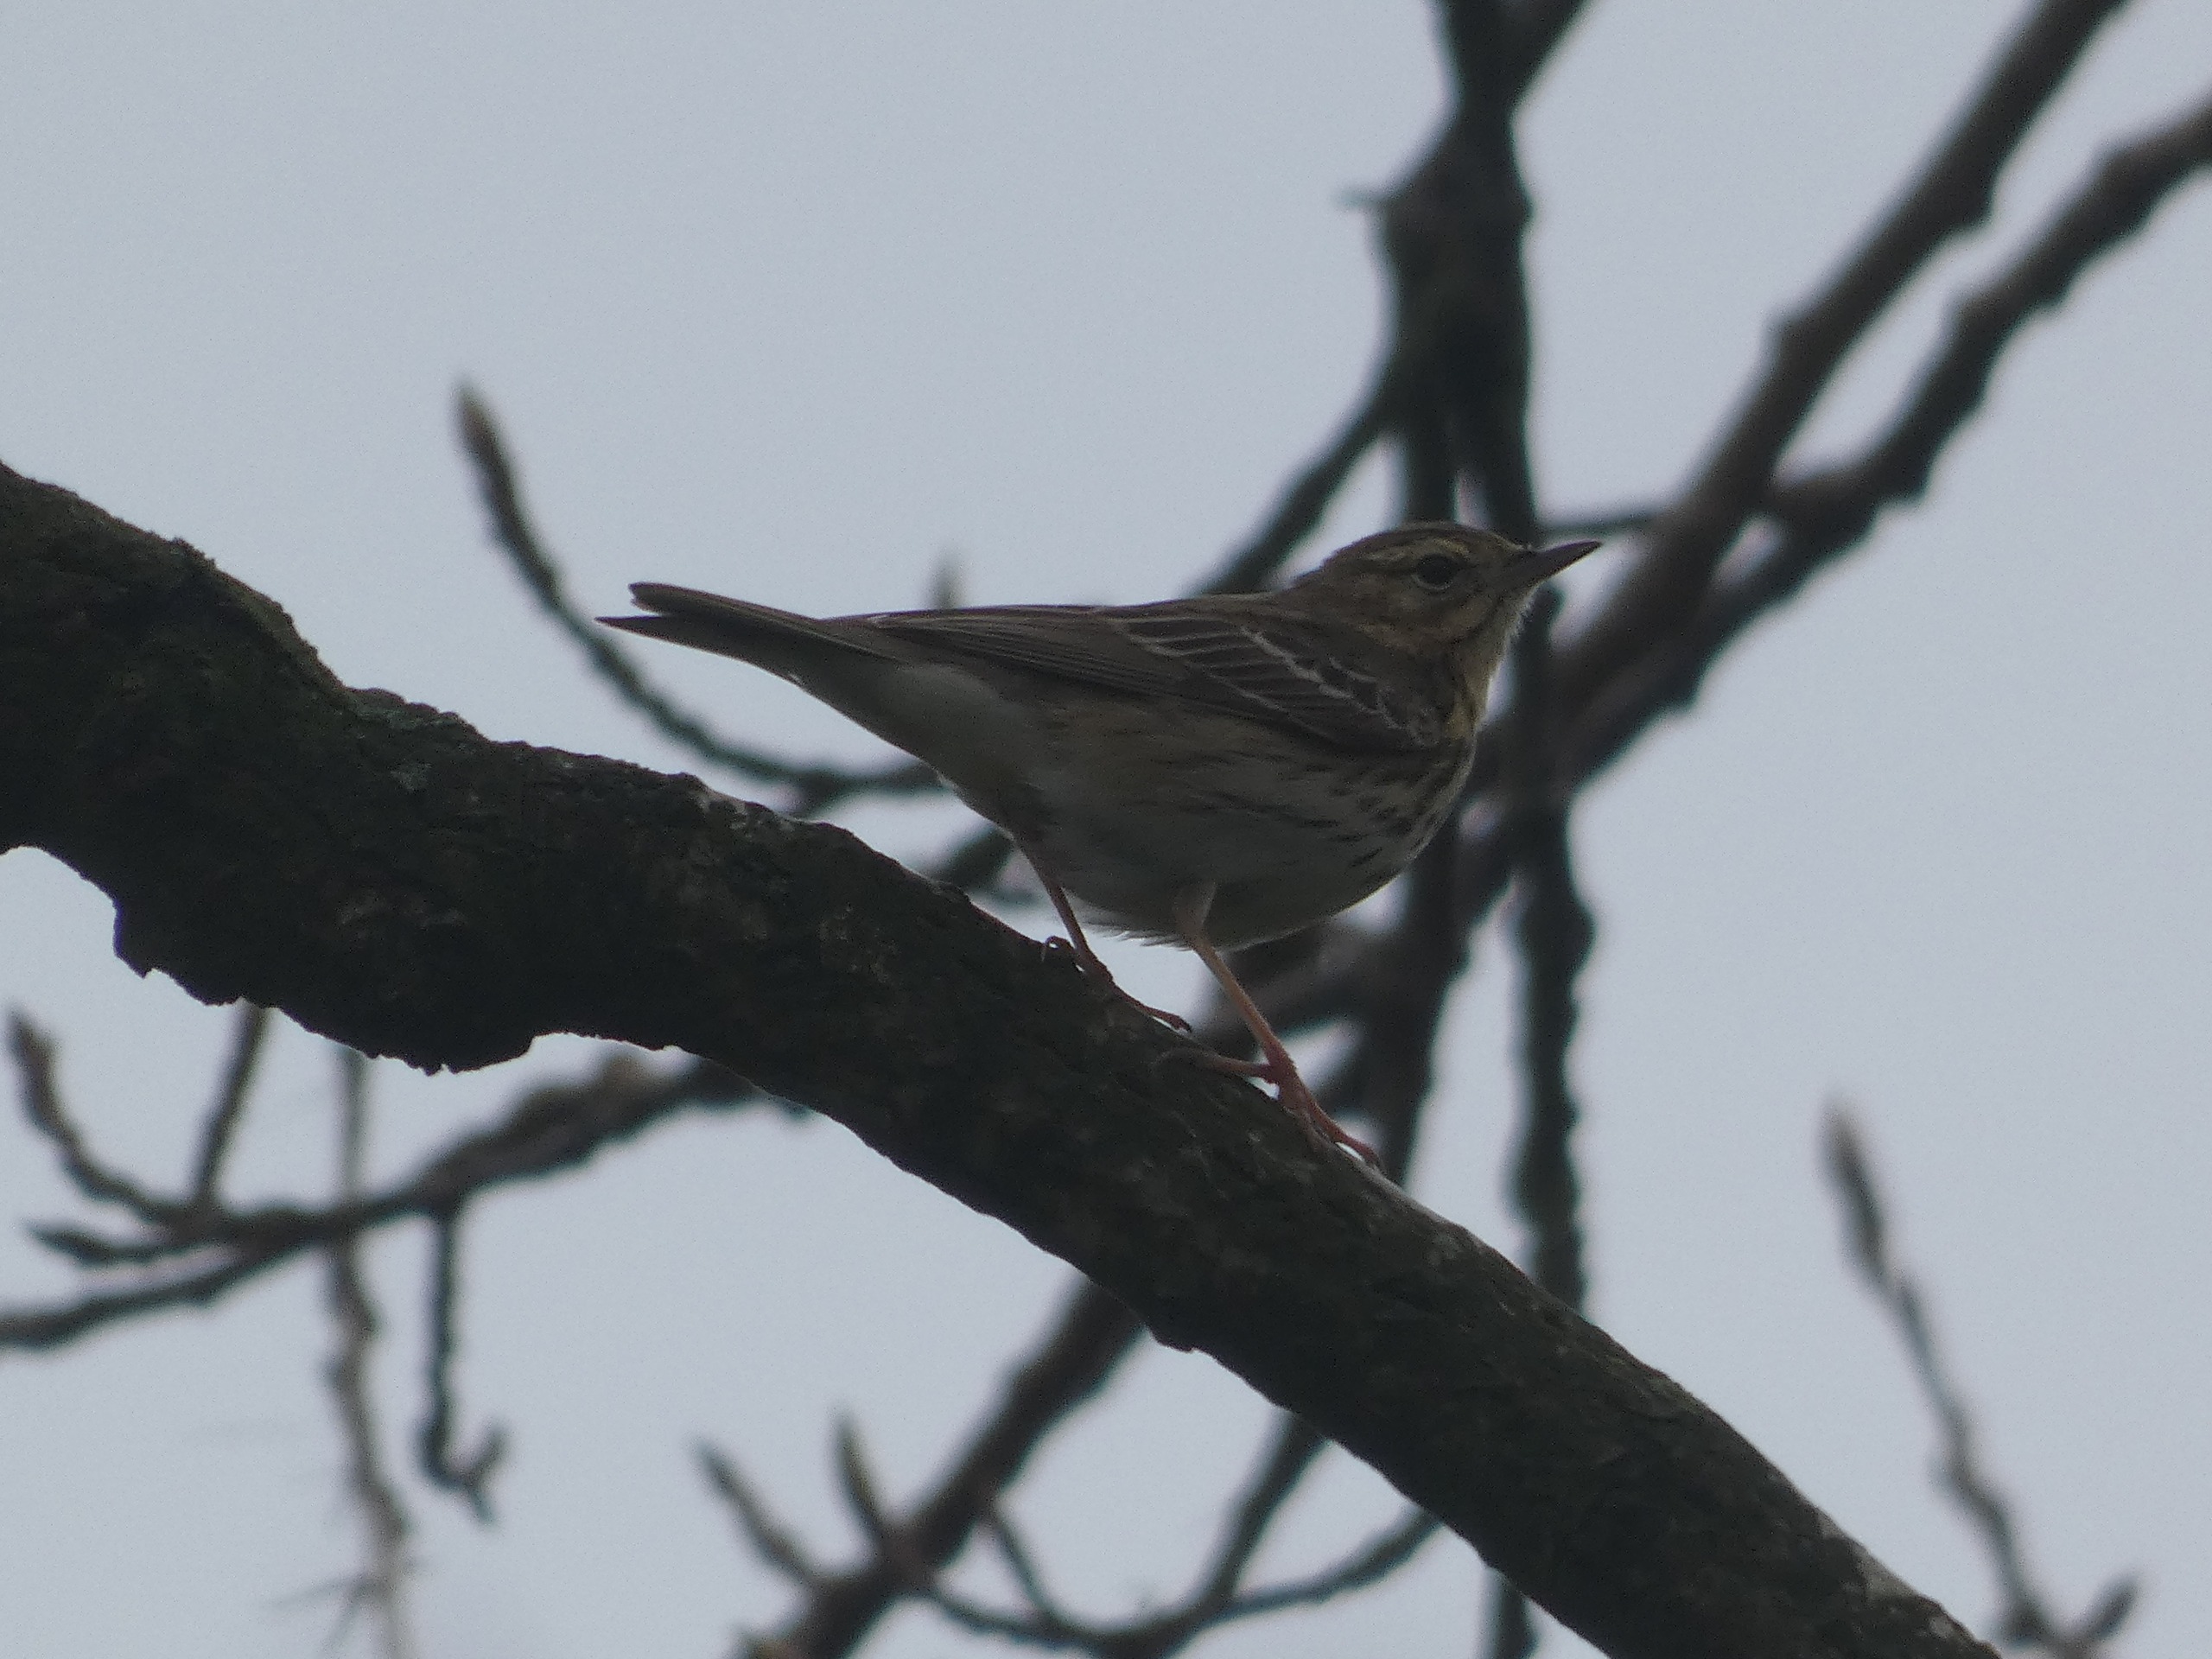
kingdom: Animalia
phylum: Chordata
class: Aves
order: Passeriformes
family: Motacillidae
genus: Anthus
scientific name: Anthus trivialis
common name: Skovpiber
